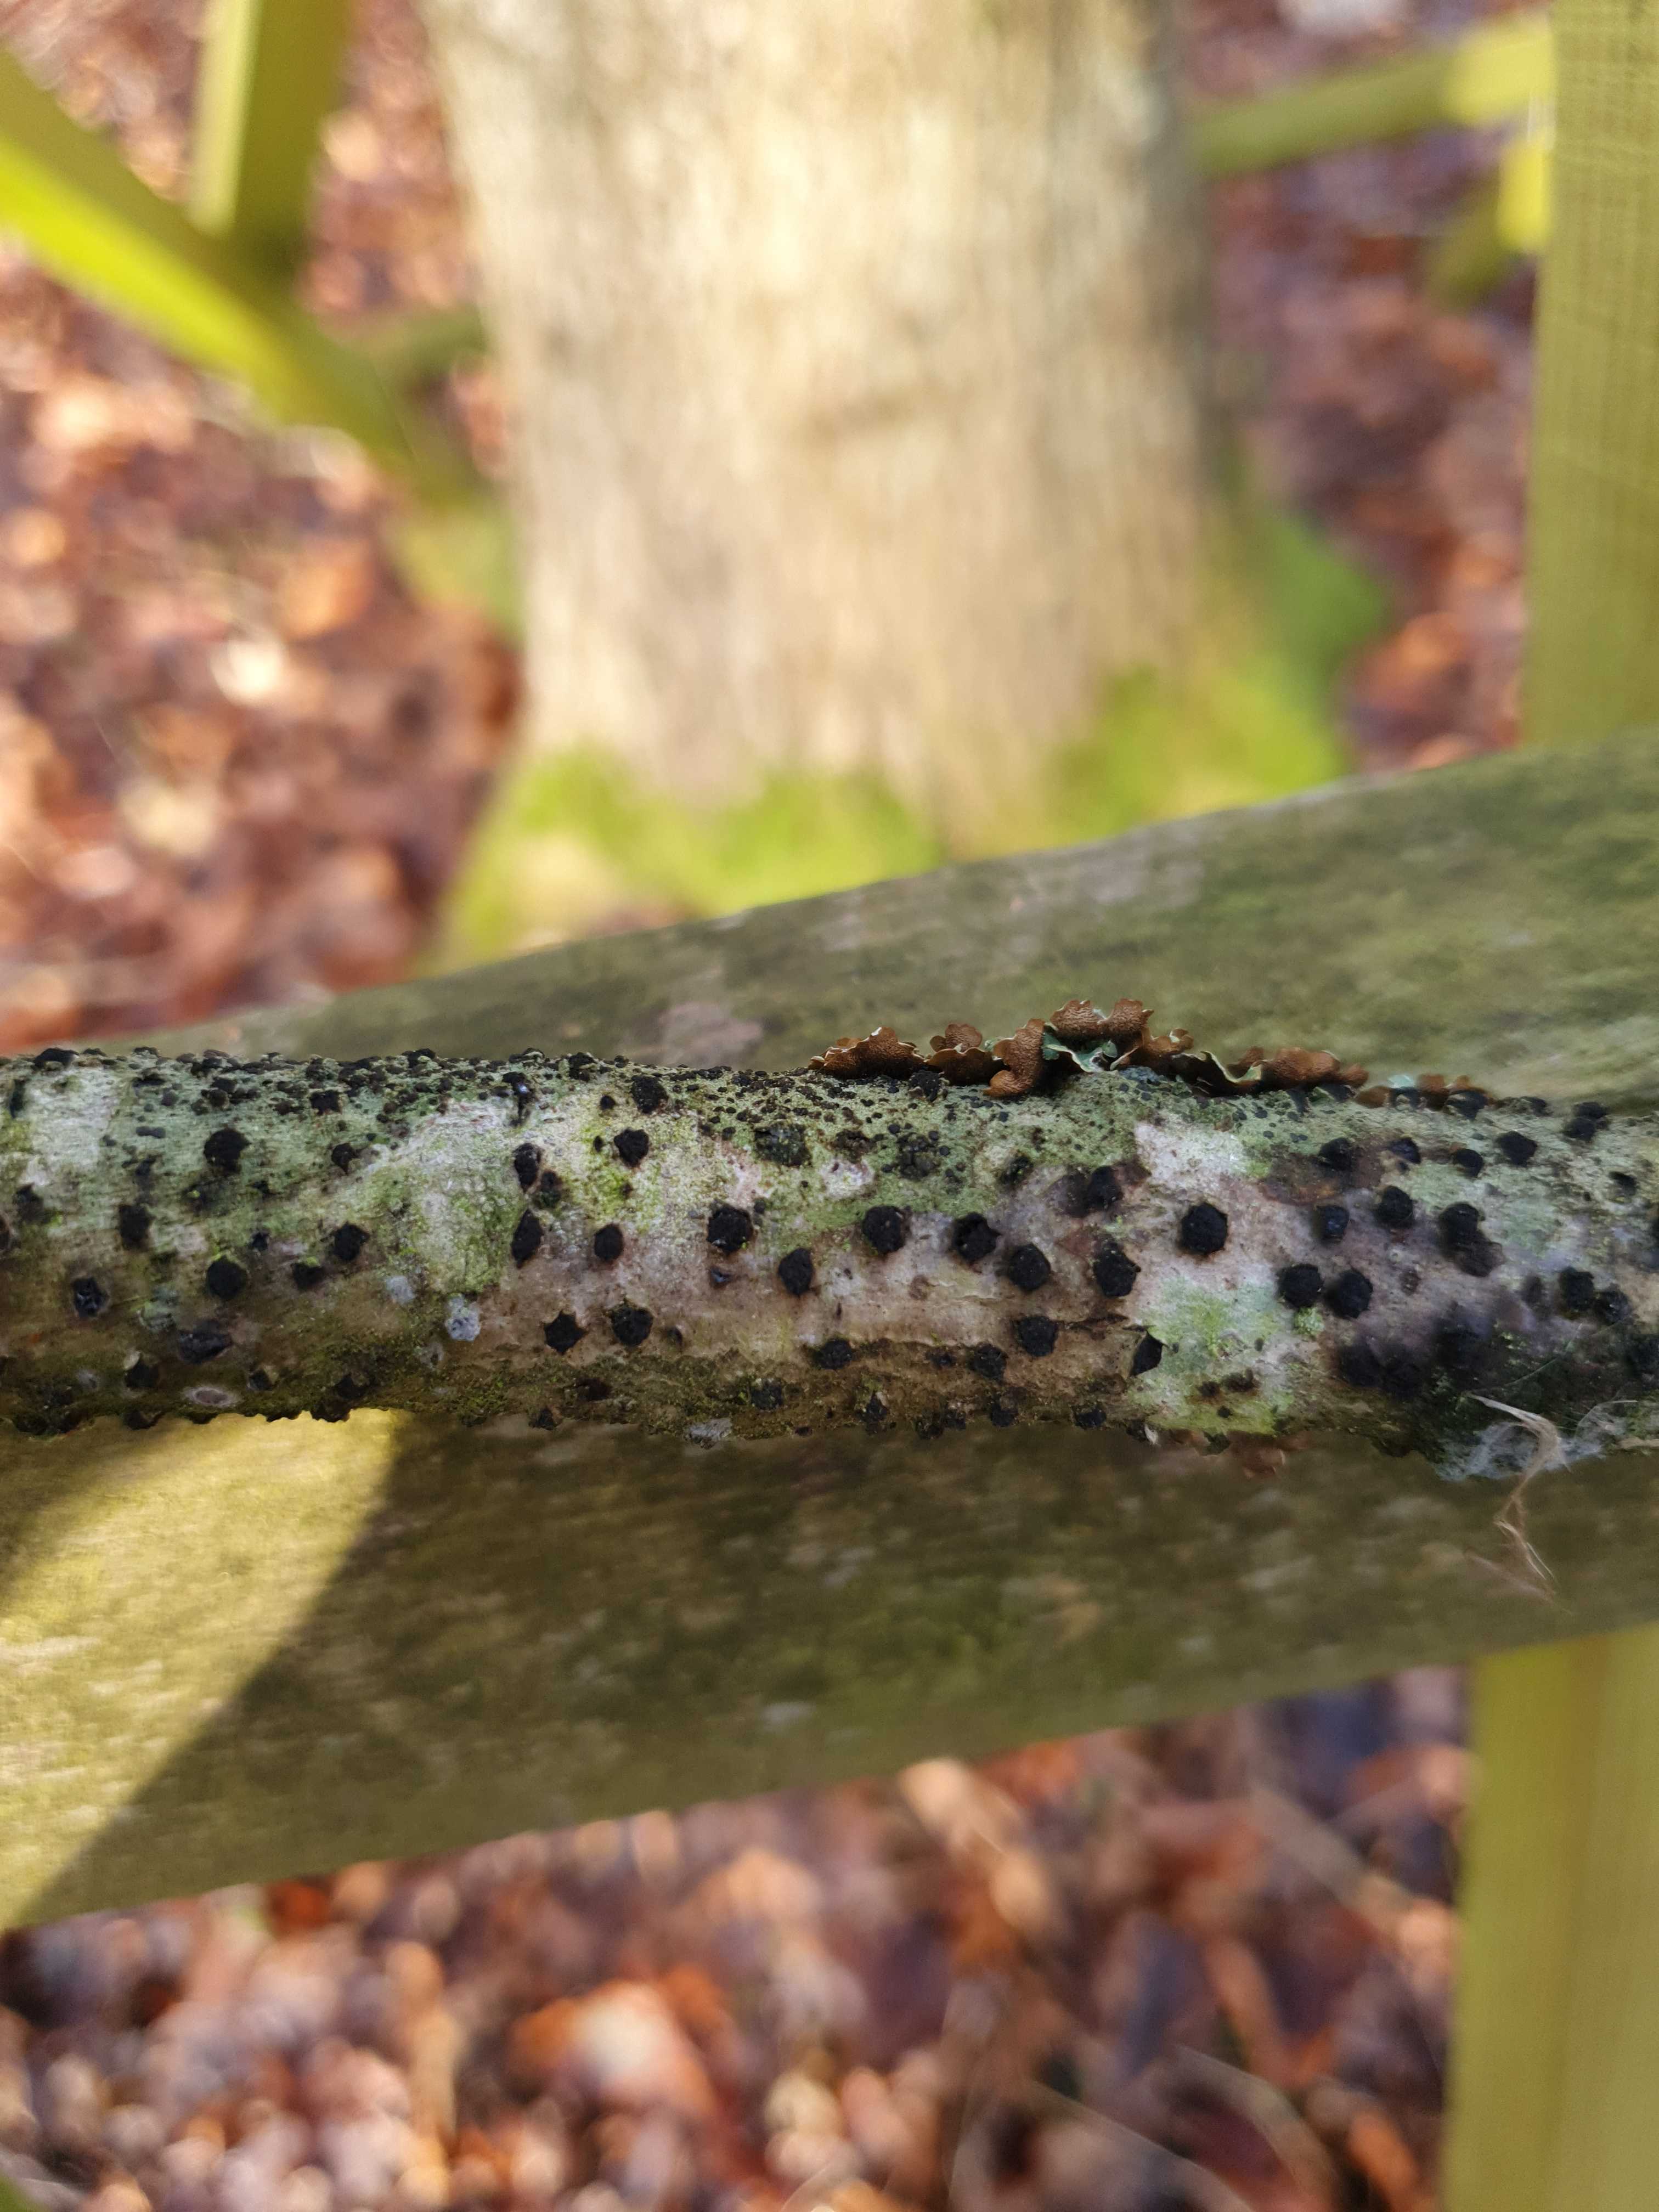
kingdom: Fungi
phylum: Ascomycota
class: Sordariomycetes
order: Xylariales
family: Diatrypaceae
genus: Diatrypella
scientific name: Diatrypella quercina
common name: ege-kulskorpe
